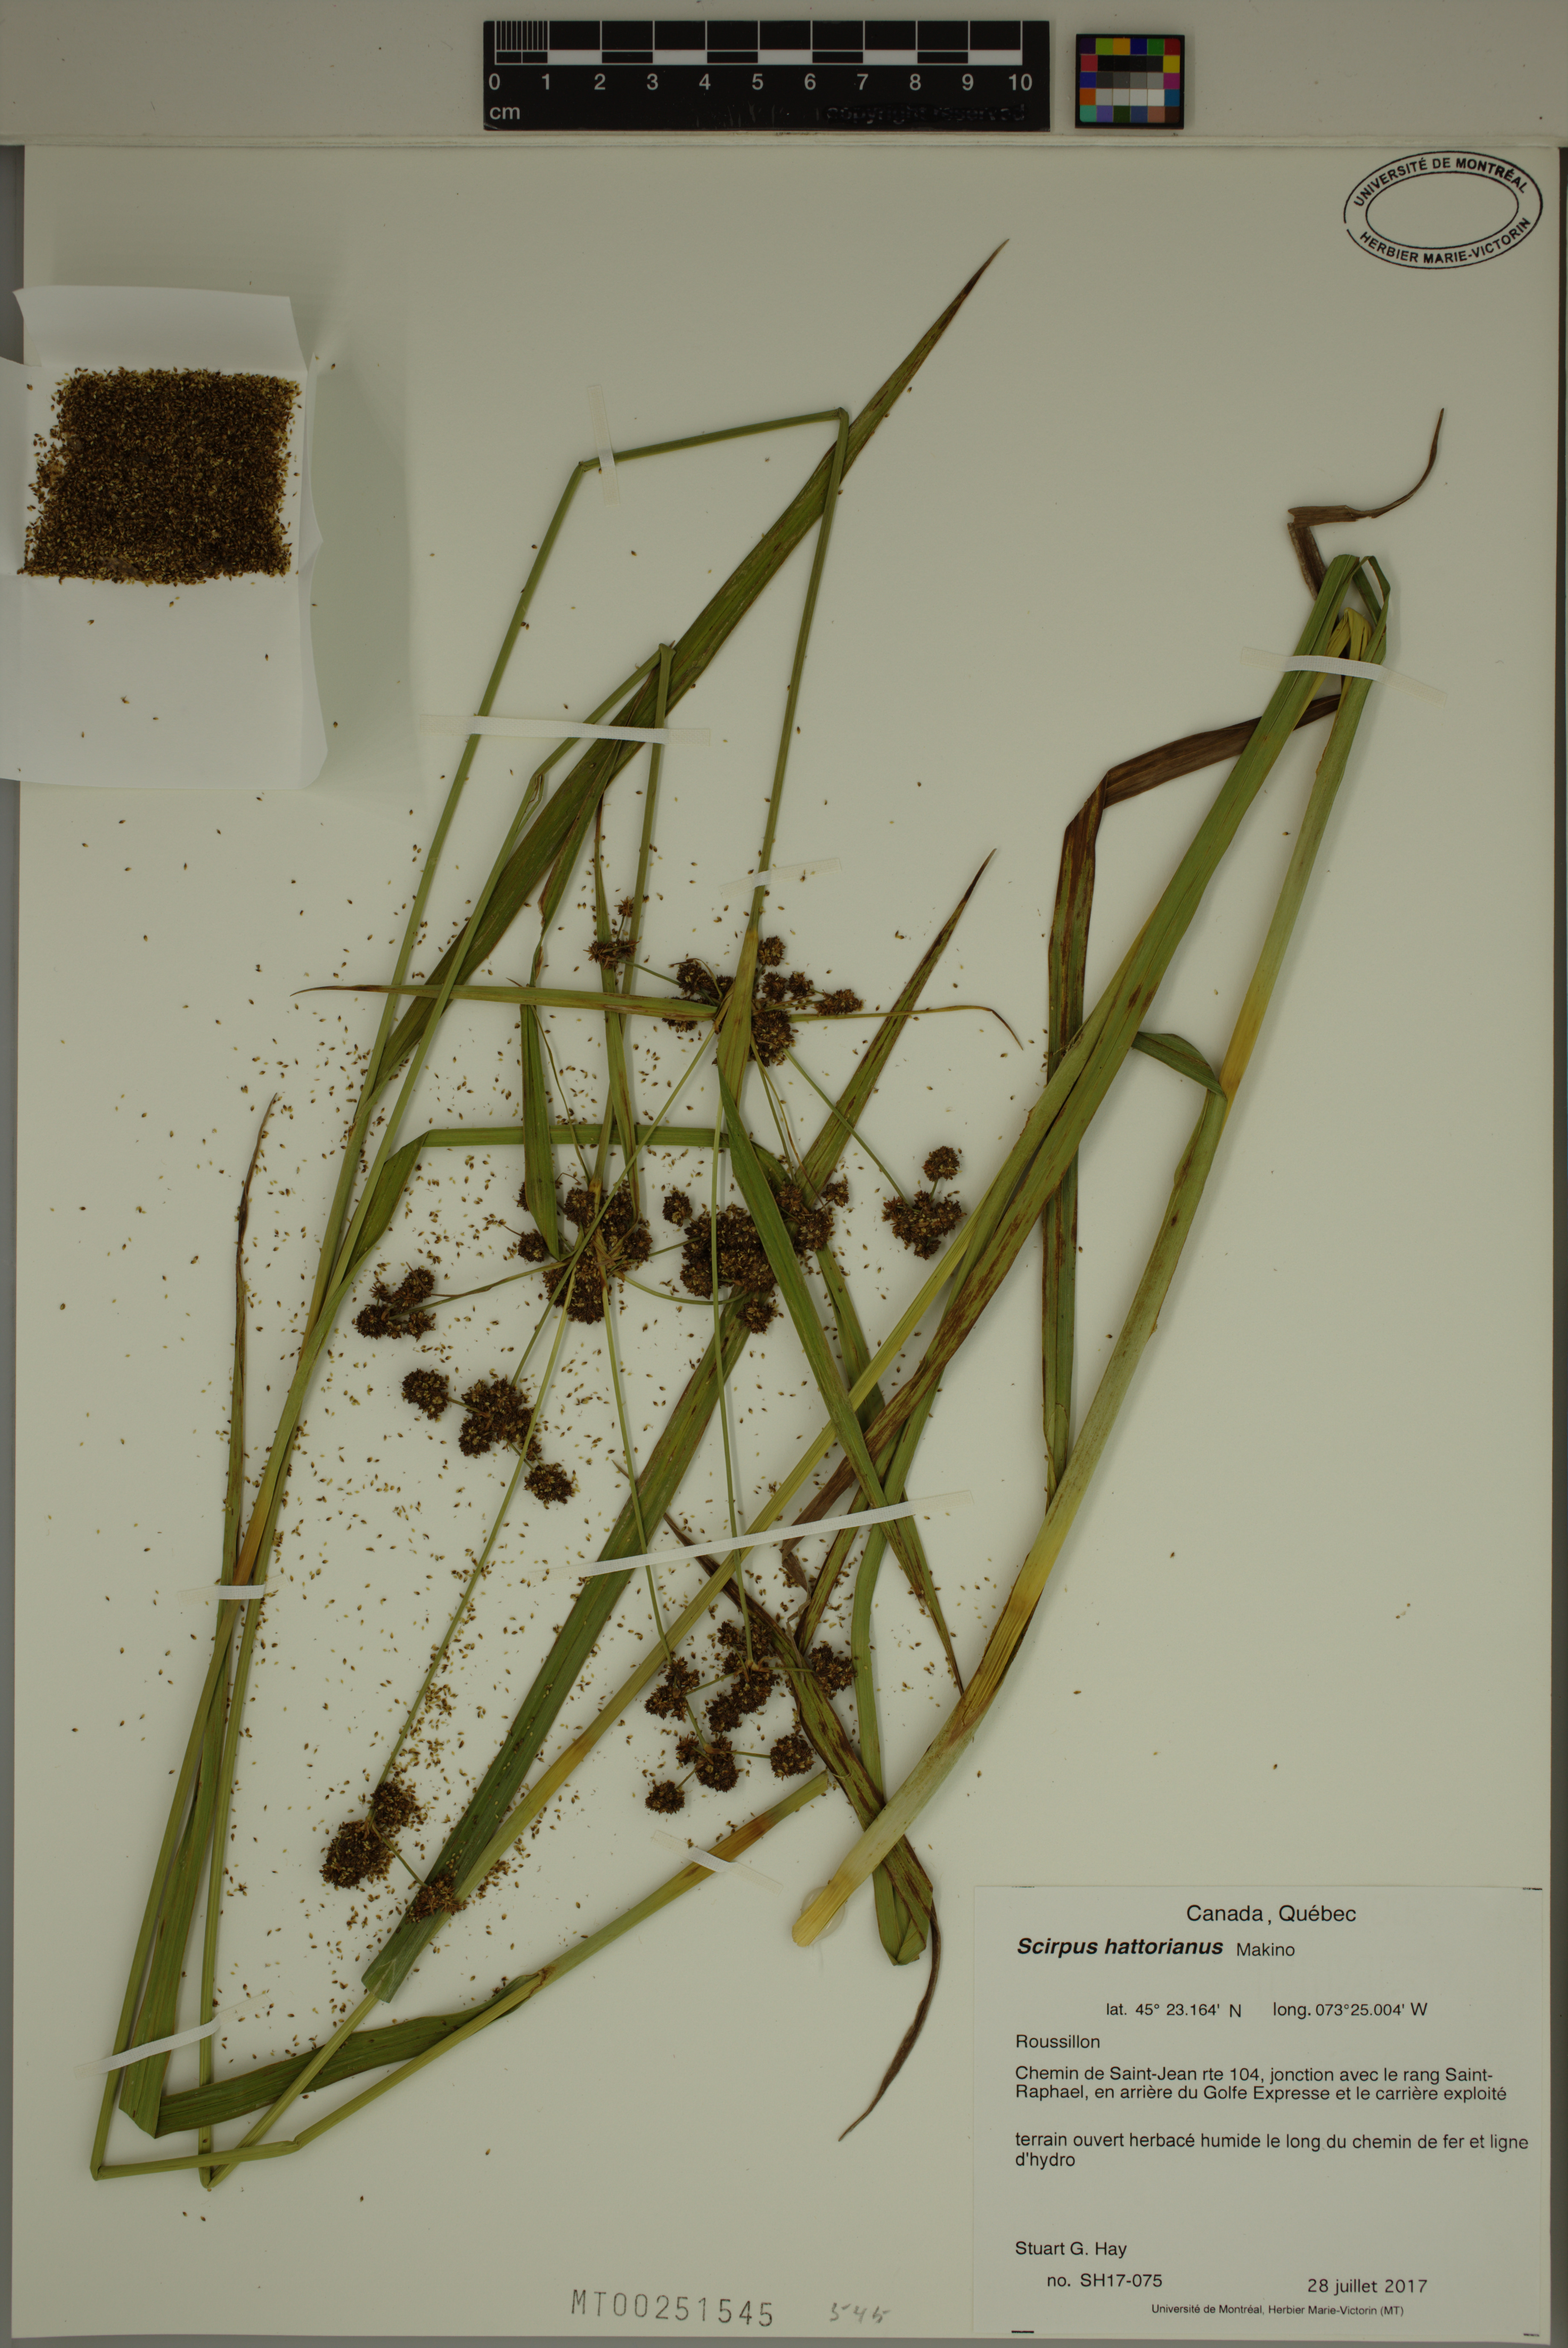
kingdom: Plantae
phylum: Tracheophyta
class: Liliopsida
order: Poales
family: Cyperaceae
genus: Scirpus
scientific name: Scirpus hattorianus
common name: Early dark-green bulrush
